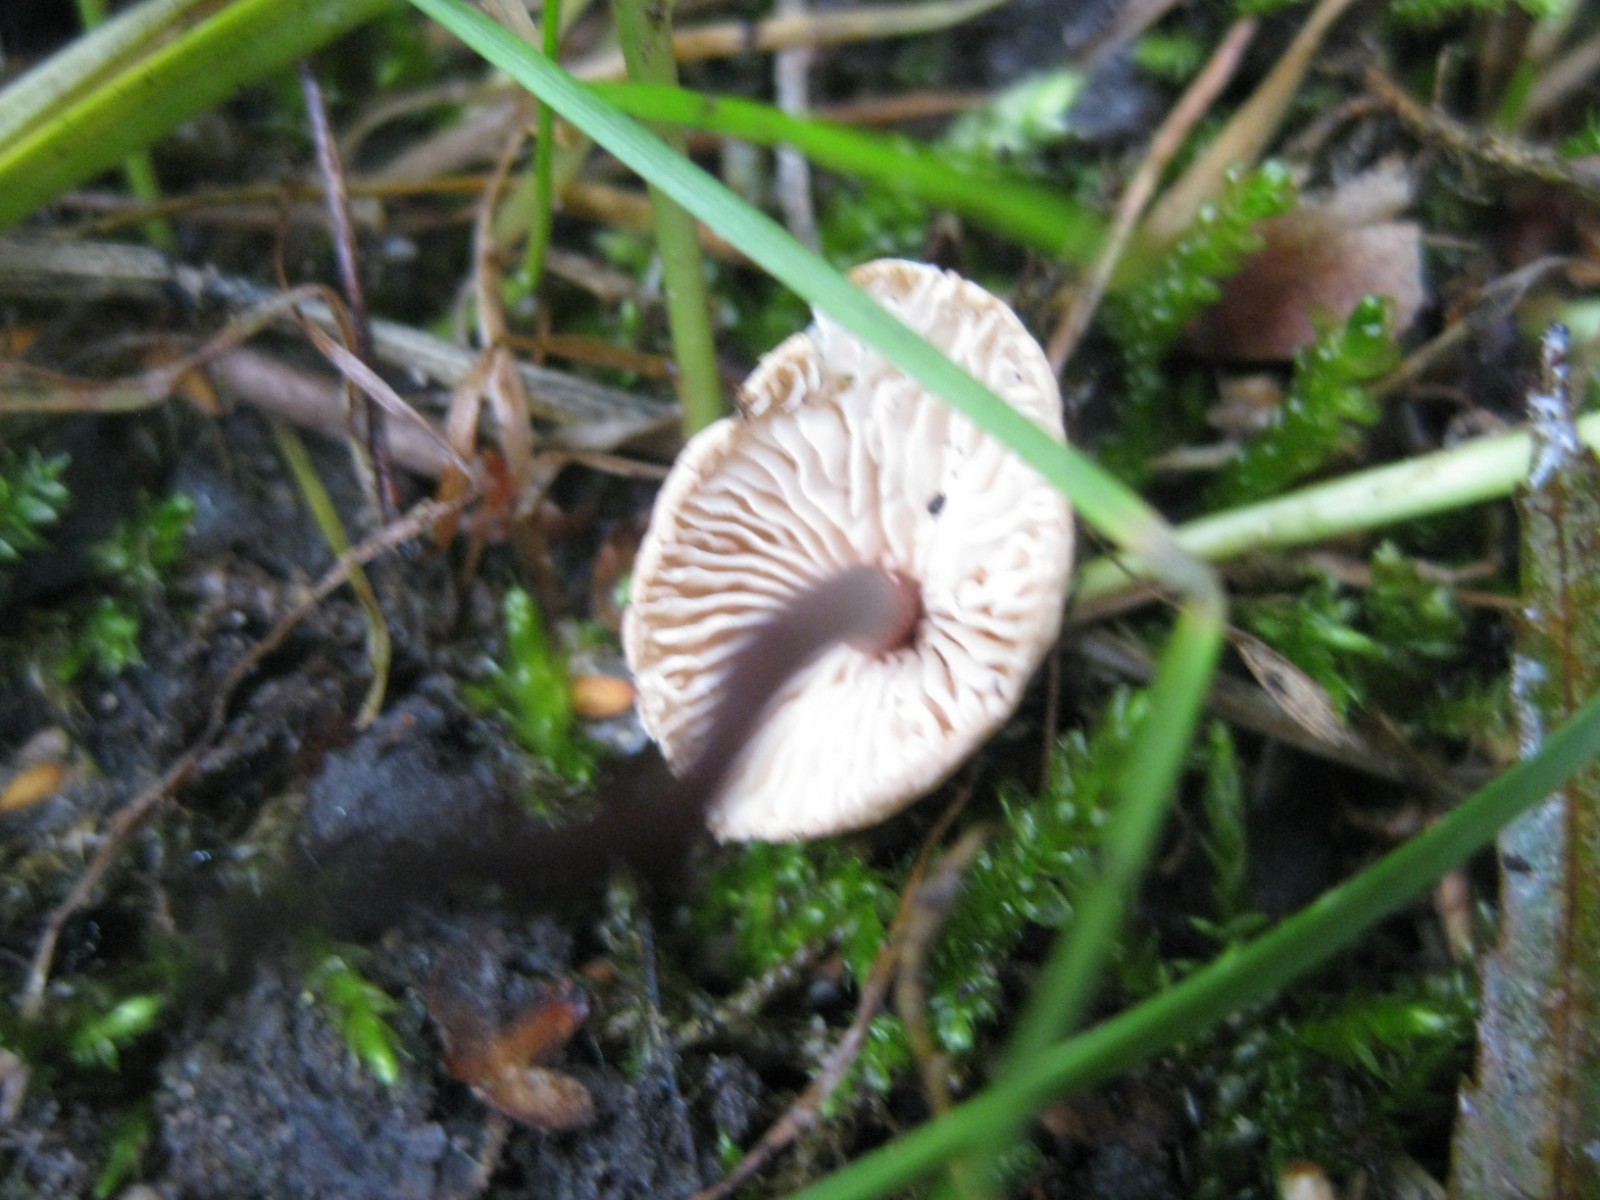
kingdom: Fungi
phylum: Basidiomycota
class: Agaricomycetes
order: Agaricales
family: Omphalotaceae
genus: Mycetinis
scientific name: Mycetinis scorodonius
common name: lille løghat
